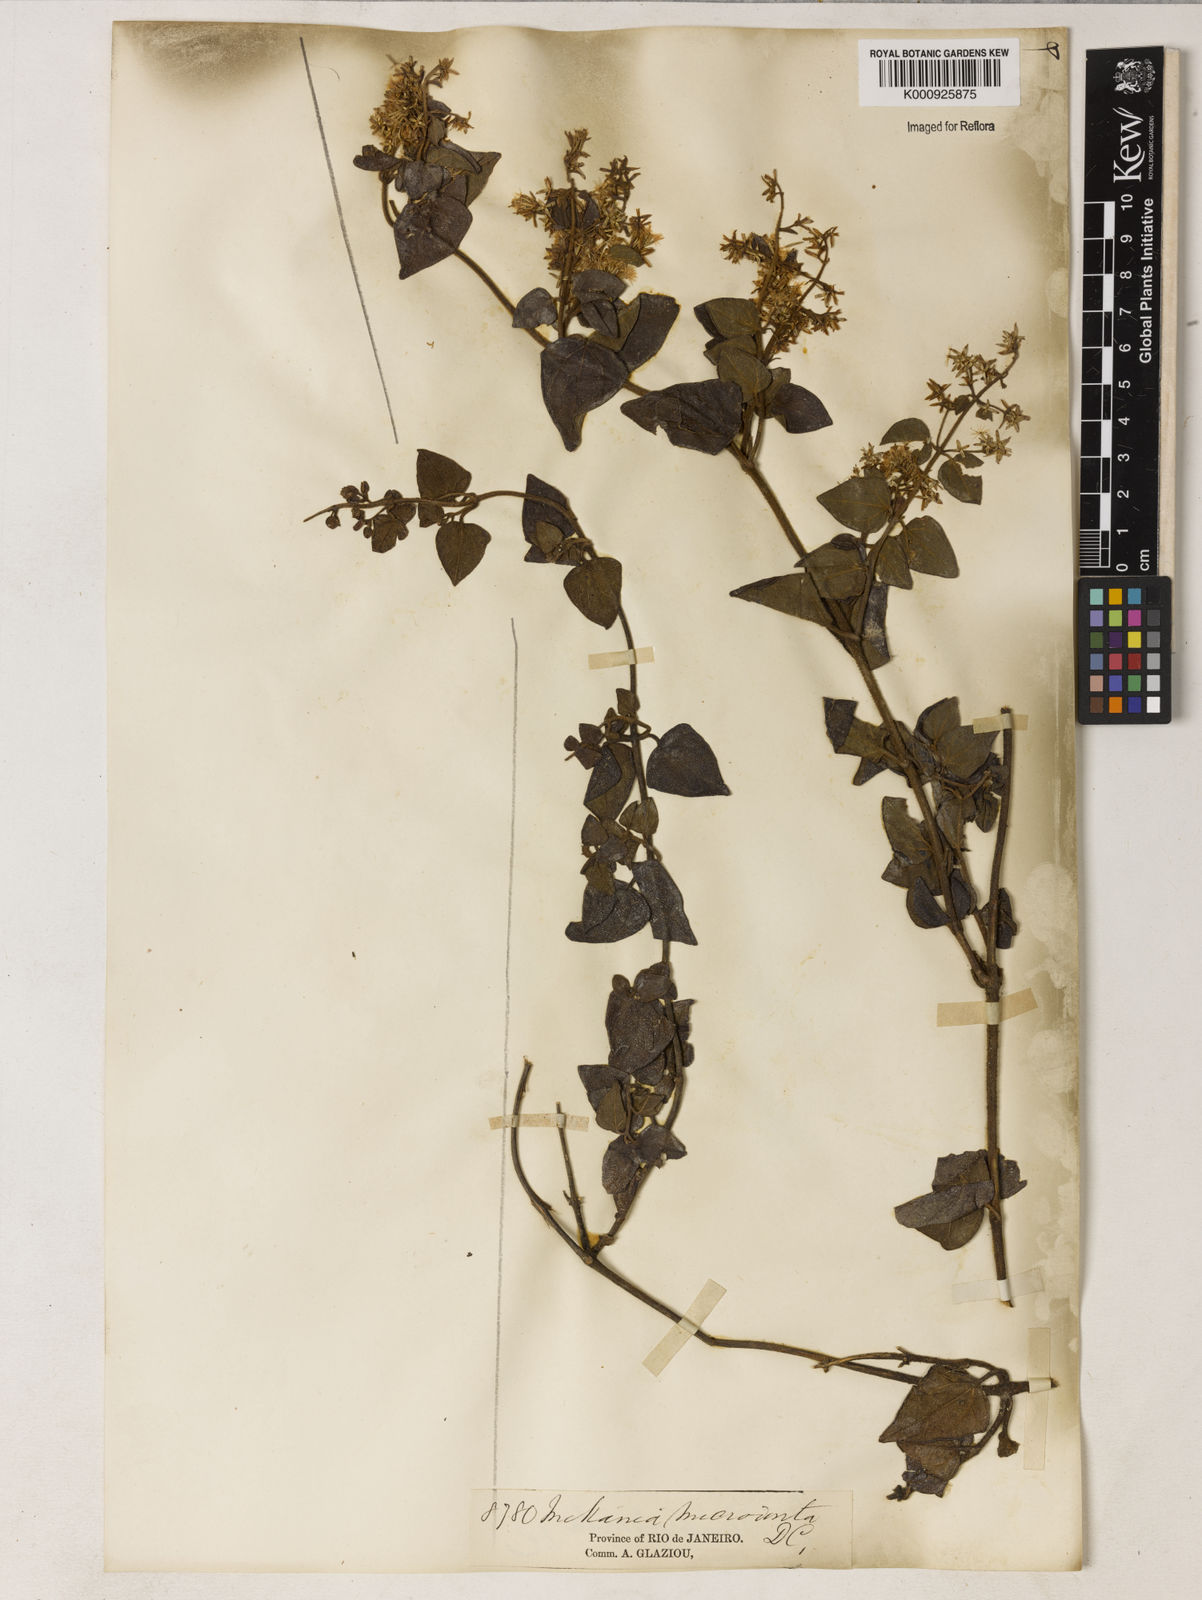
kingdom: Plantae
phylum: Tracheophyta
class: Magnoliopsida
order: Asterales
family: Asteraceae
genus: Mikania
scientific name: Mikania microdonta
